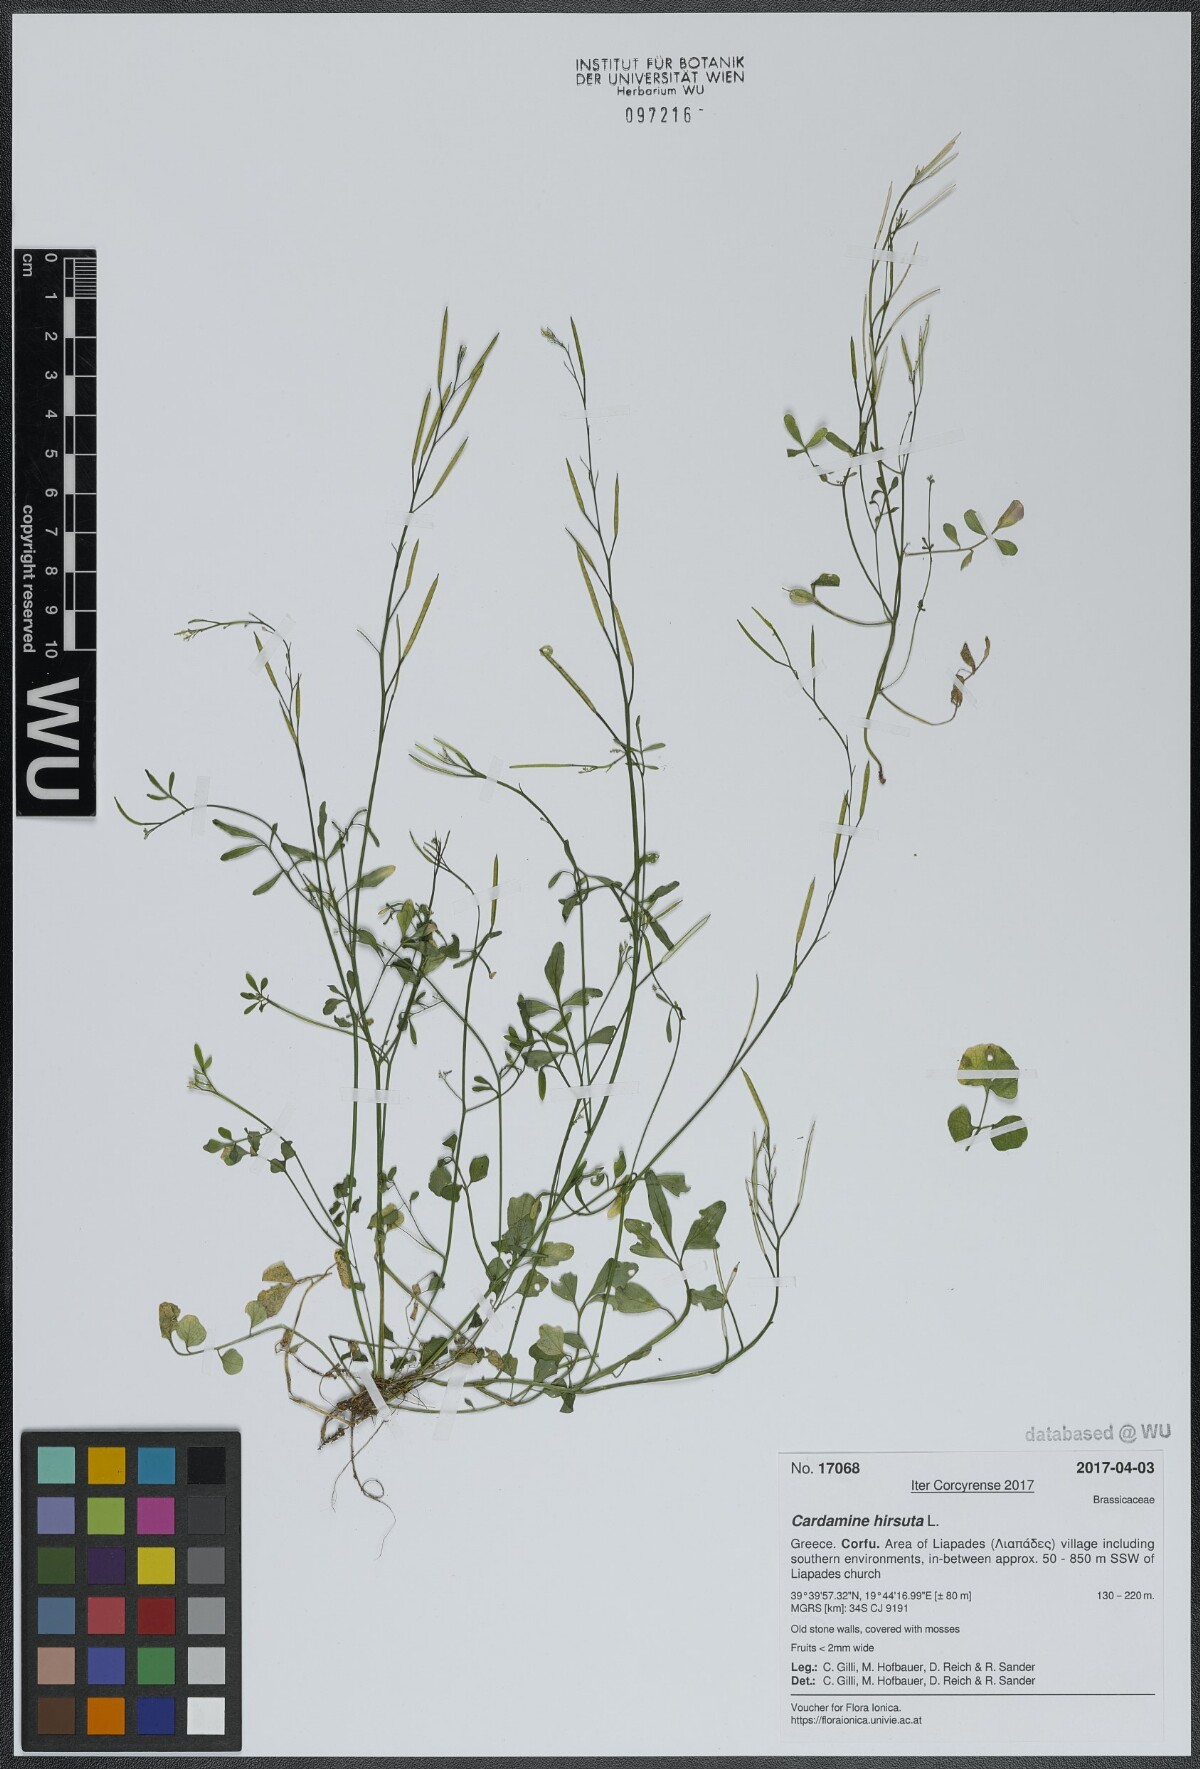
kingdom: Plantae
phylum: Tracheophyta
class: Magnoliopsida
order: Brassicales
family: Brassicaceae
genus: Cardamine
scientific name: Cardamine hirsuta
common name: Hairy bittercress
